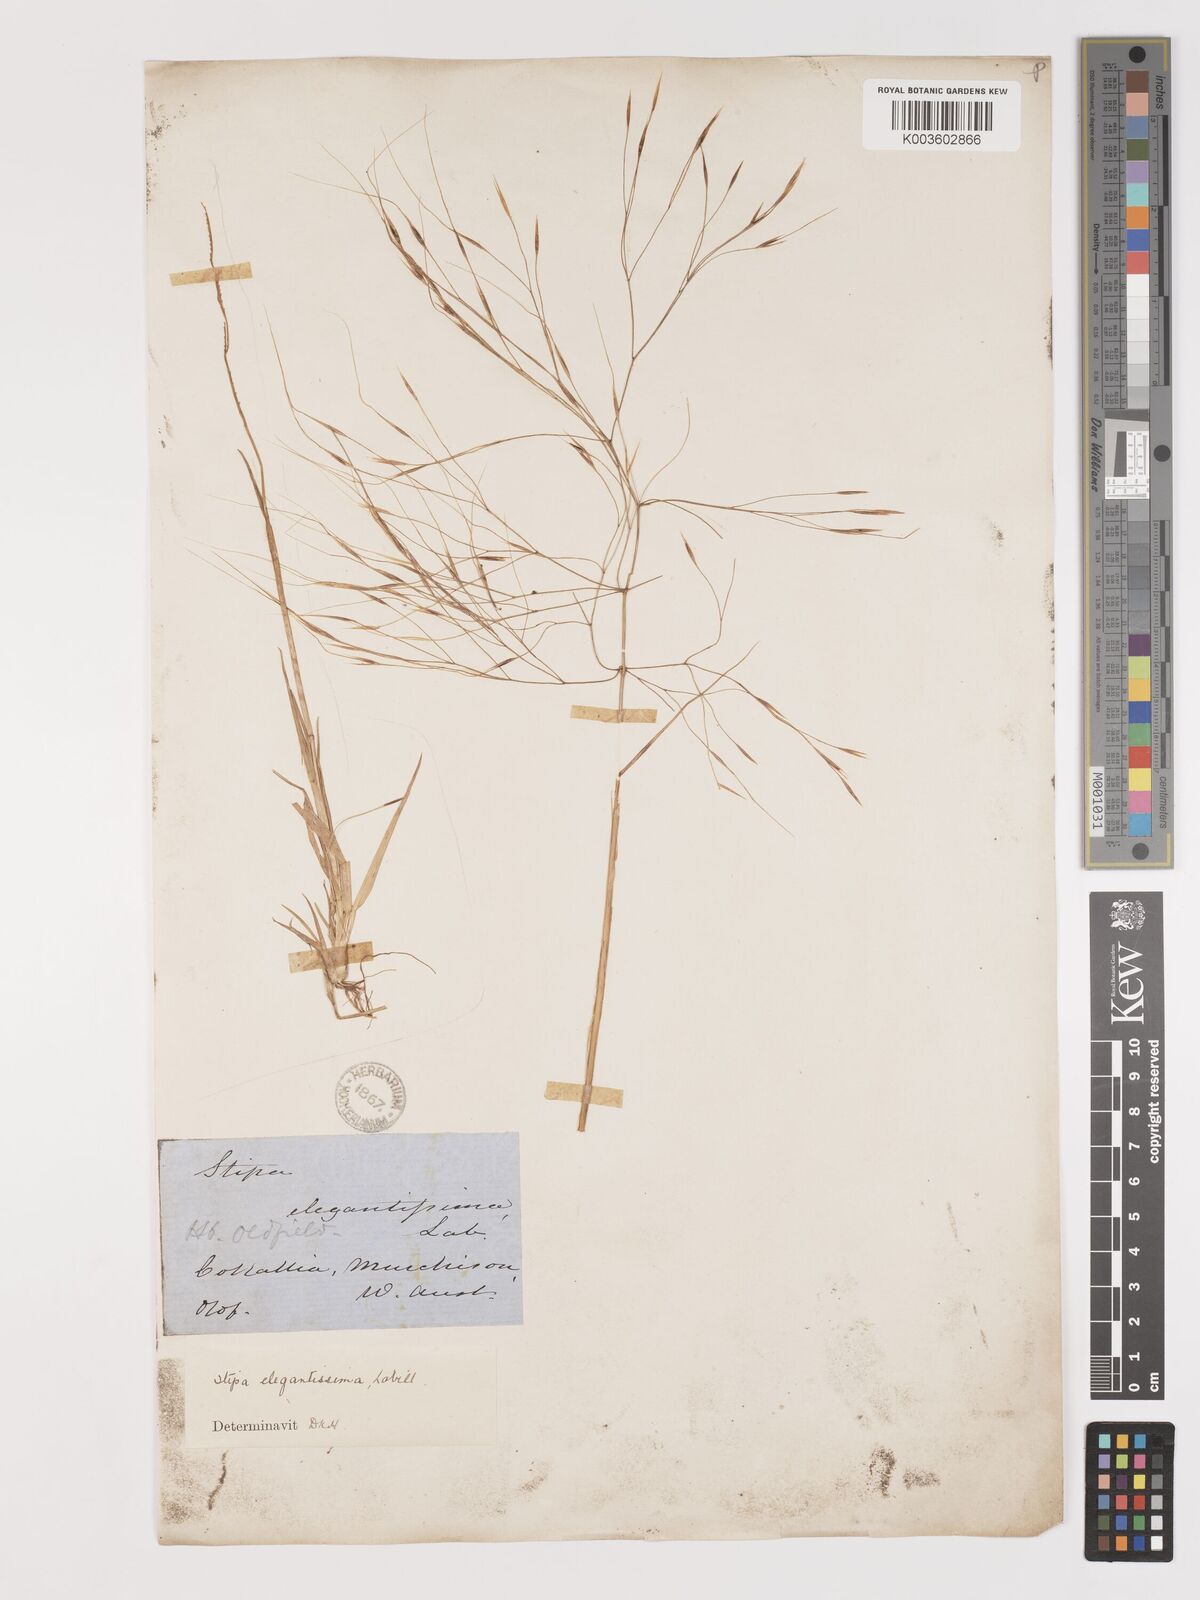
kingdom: Plantae
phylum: Tracheophyta
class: Liliopsida
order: Poales
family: Poaceae
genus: Austrostipa
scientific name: Austrostipa elegantissima
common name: Feather spear grass
